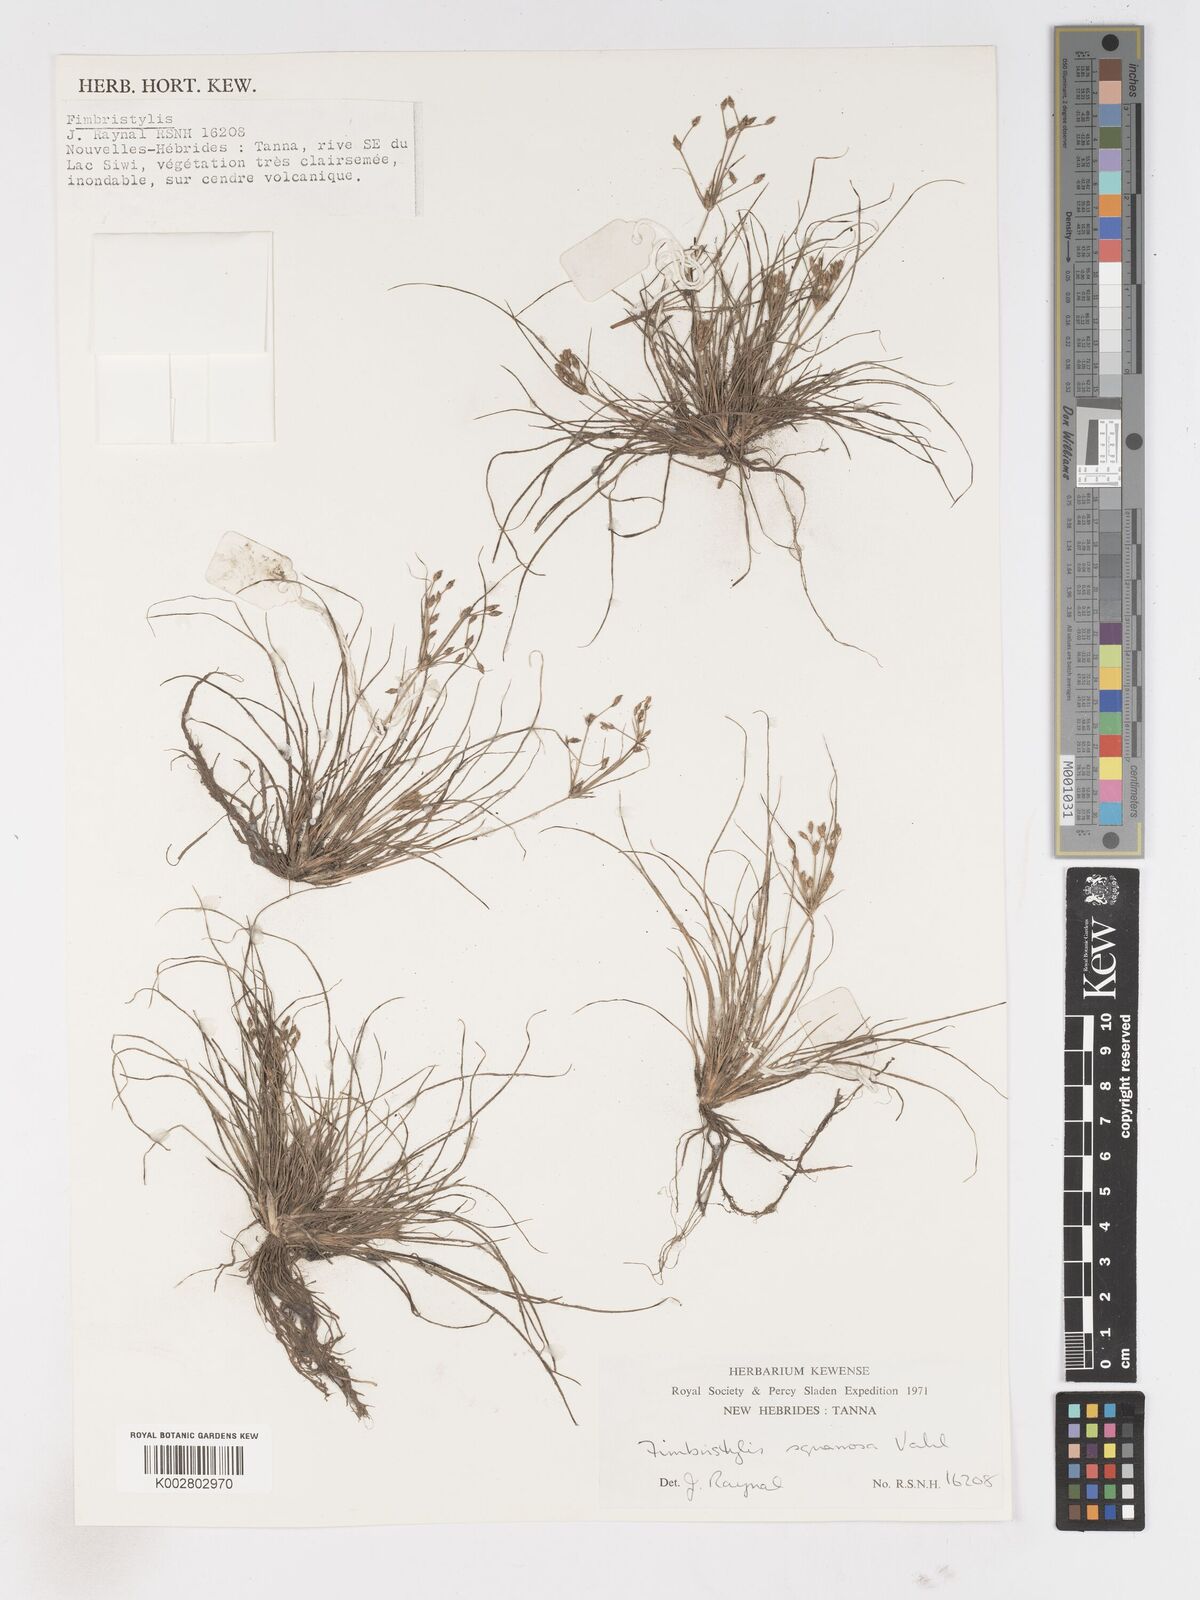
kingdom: Plantae
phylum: Tracheophyta
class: Liliopsida
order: Poales
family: Cyperaceae
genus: Fimbristylis
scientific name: Fimbristylis velata
